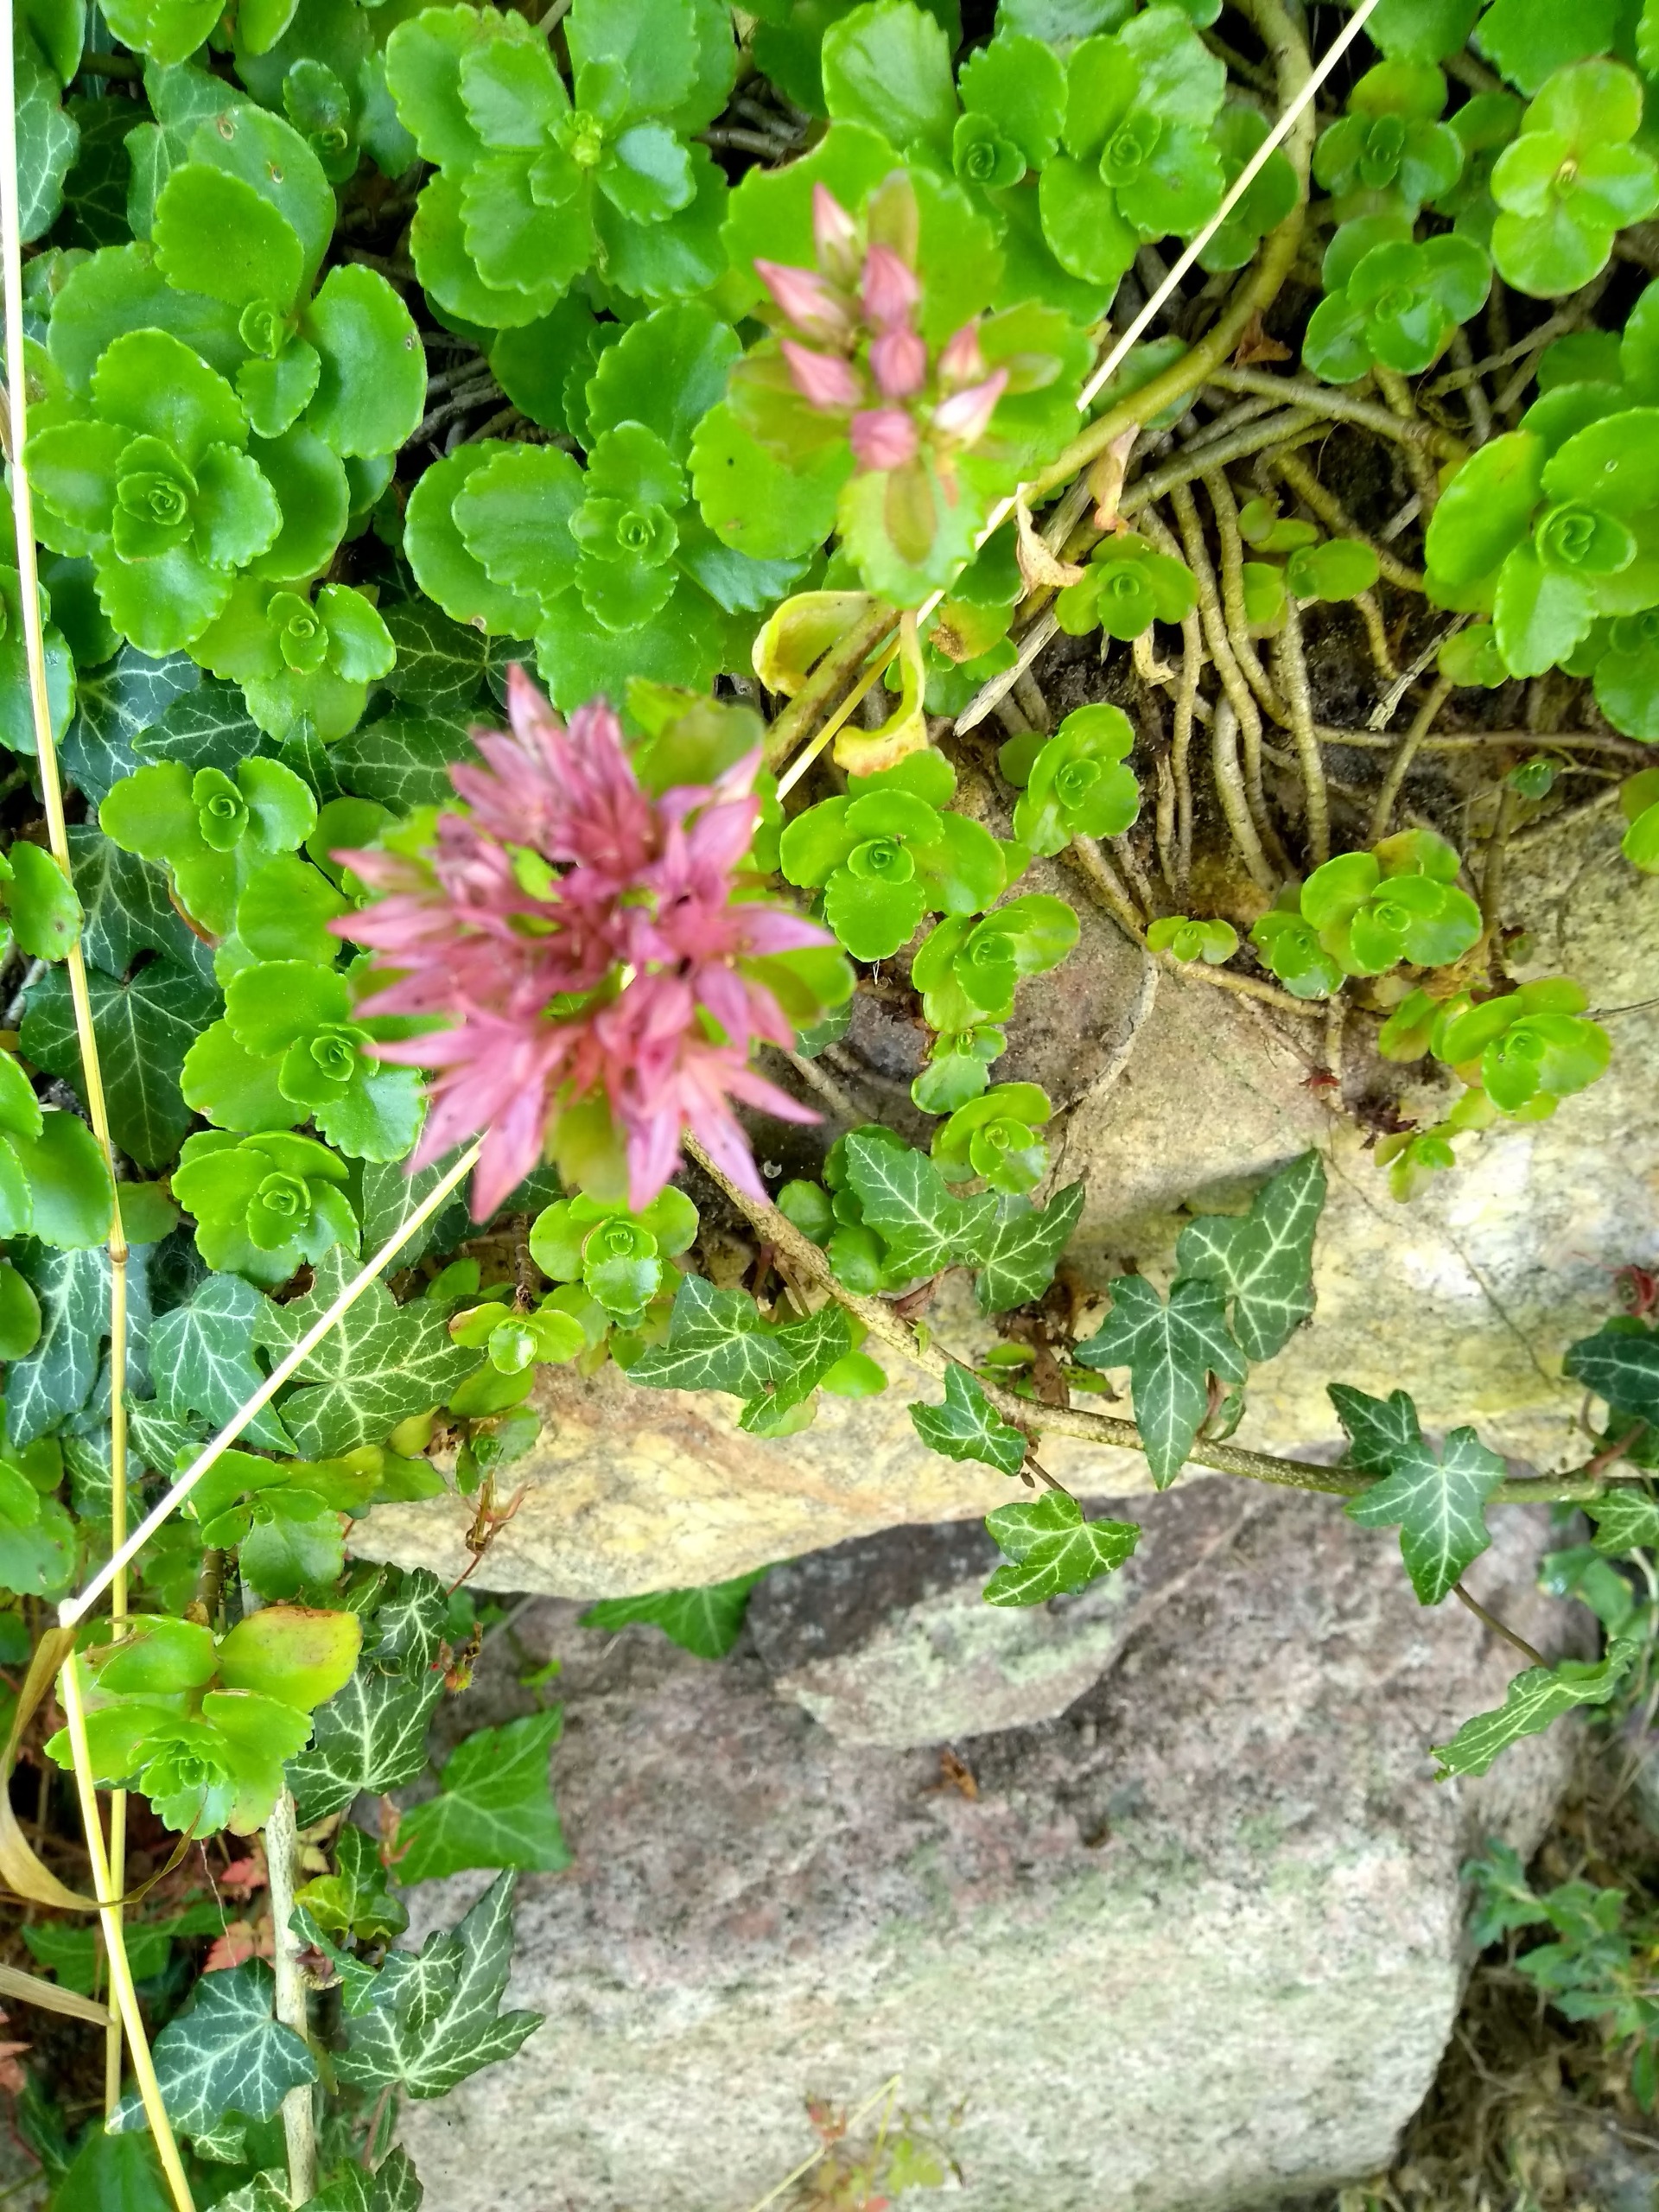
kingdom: Plantae
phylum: Tracheophyta
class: Magnoliopsida
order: Saxifragales
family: Crassulaceae
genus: Phedimus
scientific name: Phedimus spurius
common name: Rød stenurt
